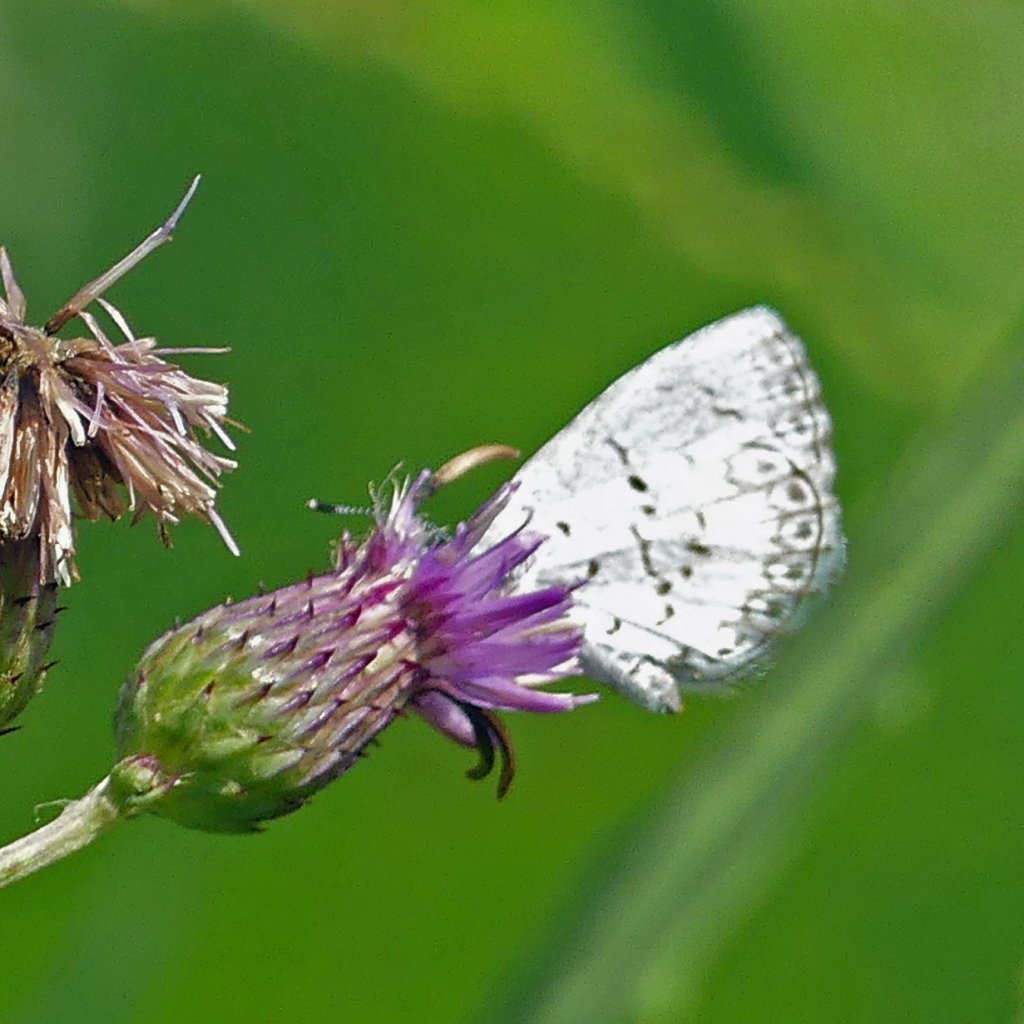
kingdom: Animalia
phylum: Arthropoda
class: Insecta
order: Lepidoptera
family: Lycaenidae
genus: Celastrina
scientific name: Celastrina
